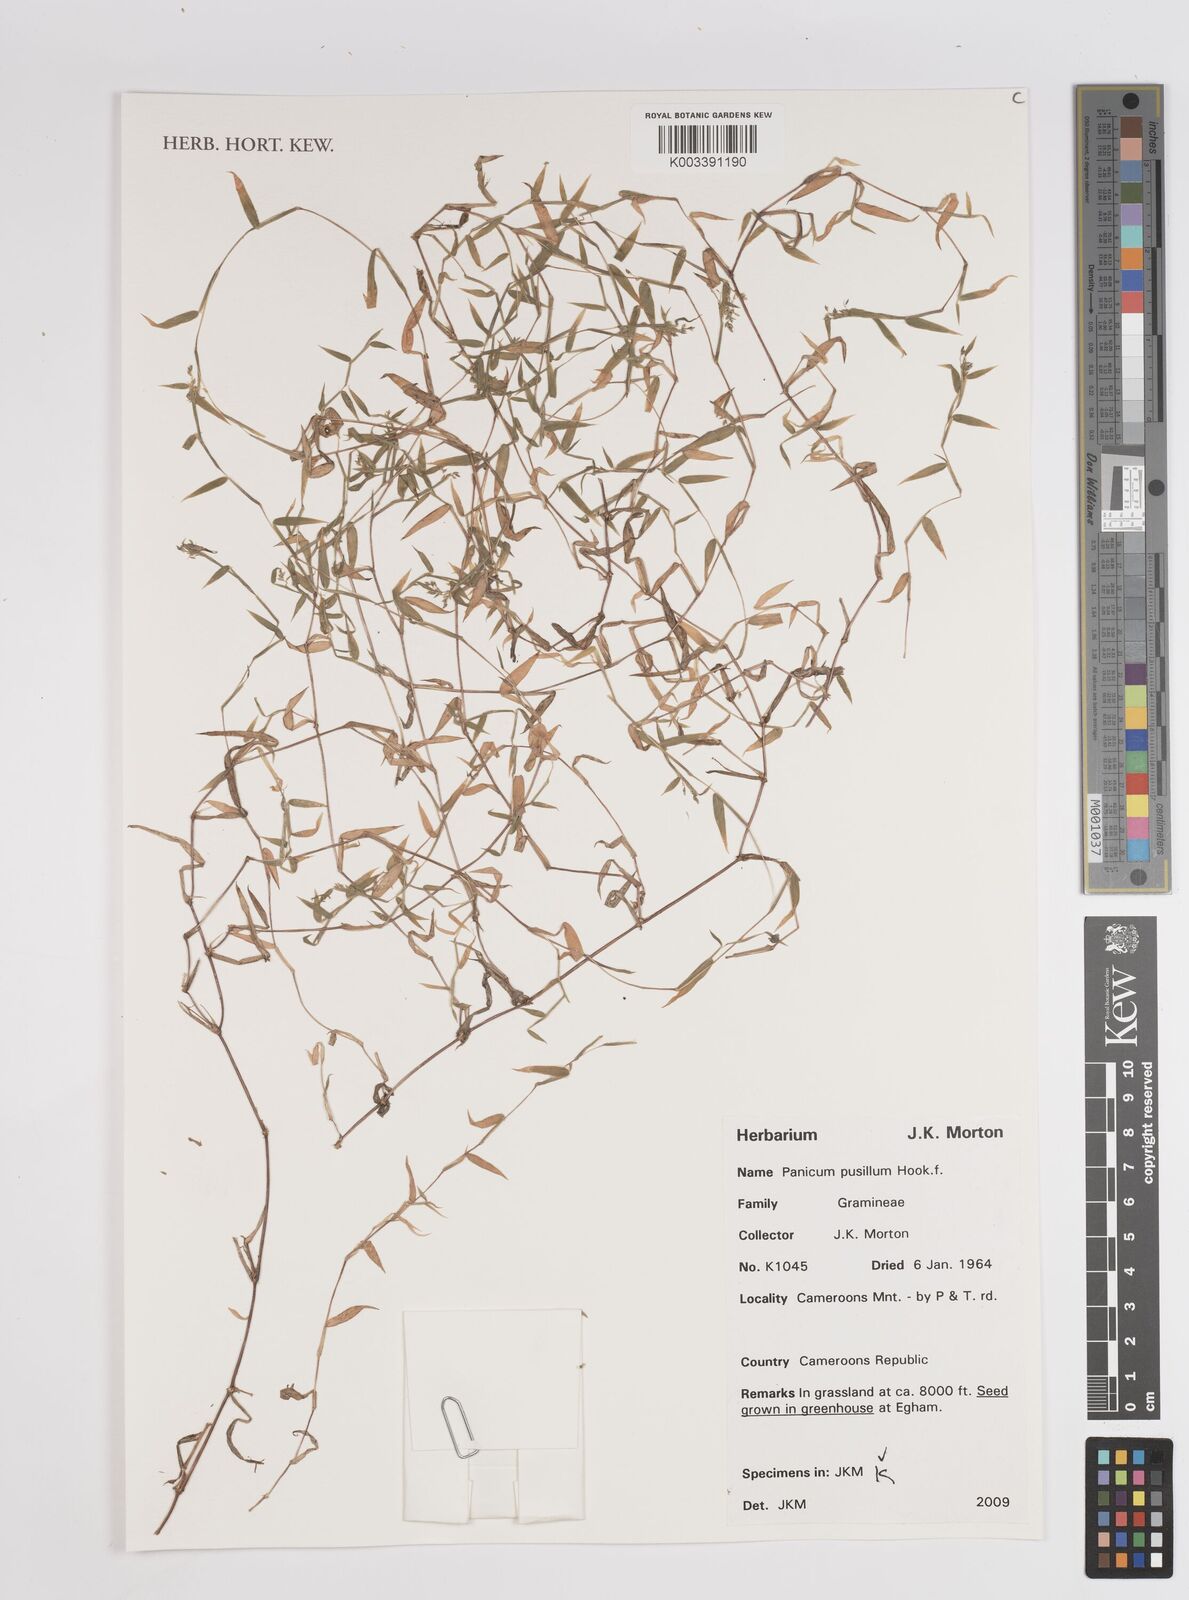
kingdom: Plantae
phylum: Tracheophyta
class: Liliopsida
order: Poales
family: Poaceae
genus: Panicum
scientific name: Panicum pusillum
